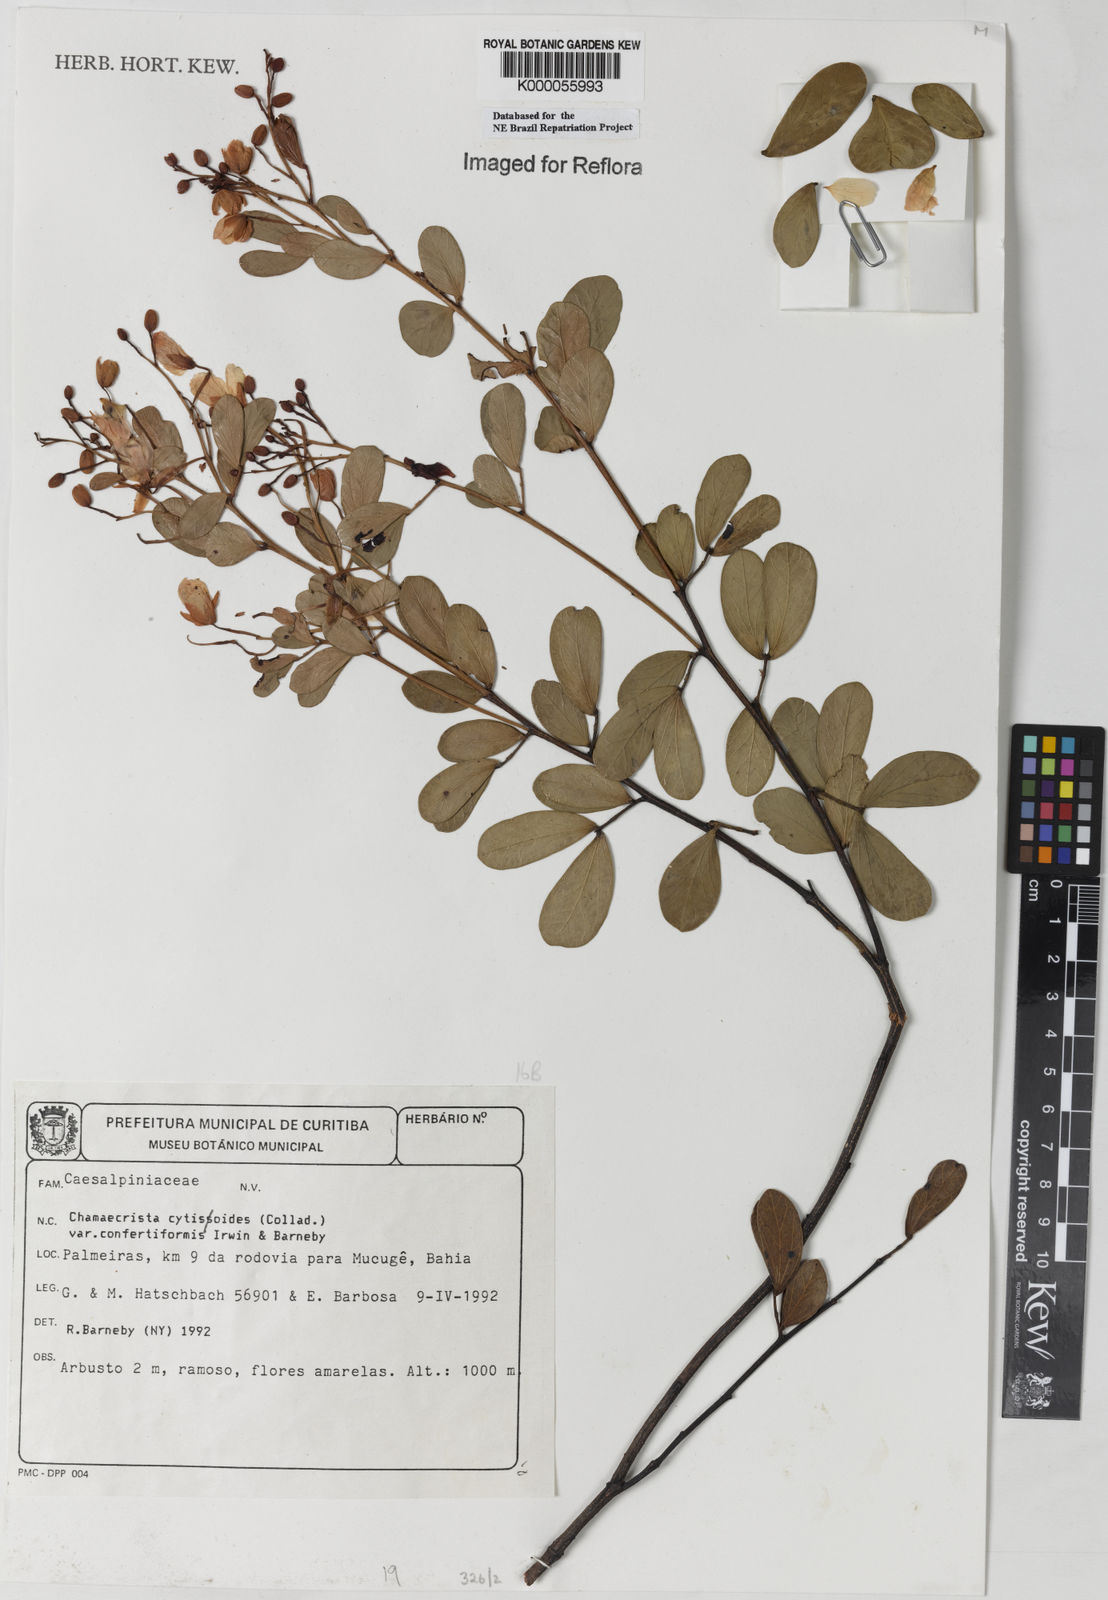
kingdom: Plantae
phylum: Tracheophyta
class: Magnoliopsida
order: Fabales
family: Fabaceae
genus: Chamaecrista
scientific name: Chamaecrista confertiformis
